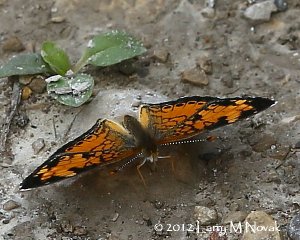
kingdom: Animalia
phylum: Arthropoda
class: Insecta
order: Lepidoptera
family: Nymphalidae
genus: Phyciodes
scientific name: Phyciodes tharos
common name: Pearl Crescent
